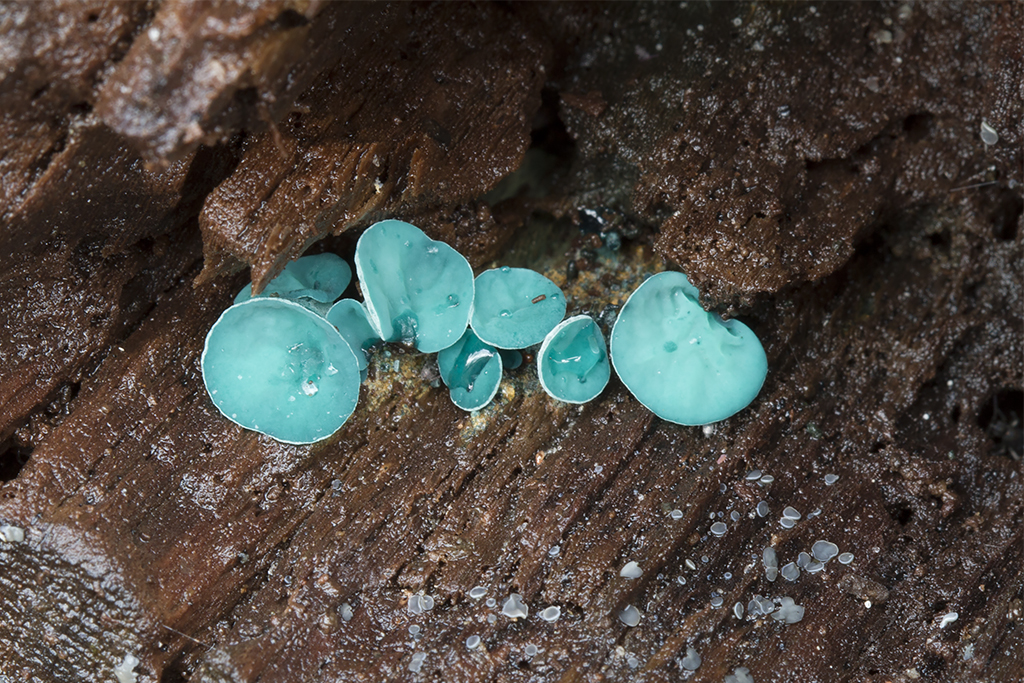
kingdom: Fungi
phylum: Ascomycota
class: Leotiomycetes
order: Helotiales
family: Chlorociboriaceae
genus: Chlorociboria
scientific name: Chlorociboria aeruginascens
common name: almindelig grønskive
